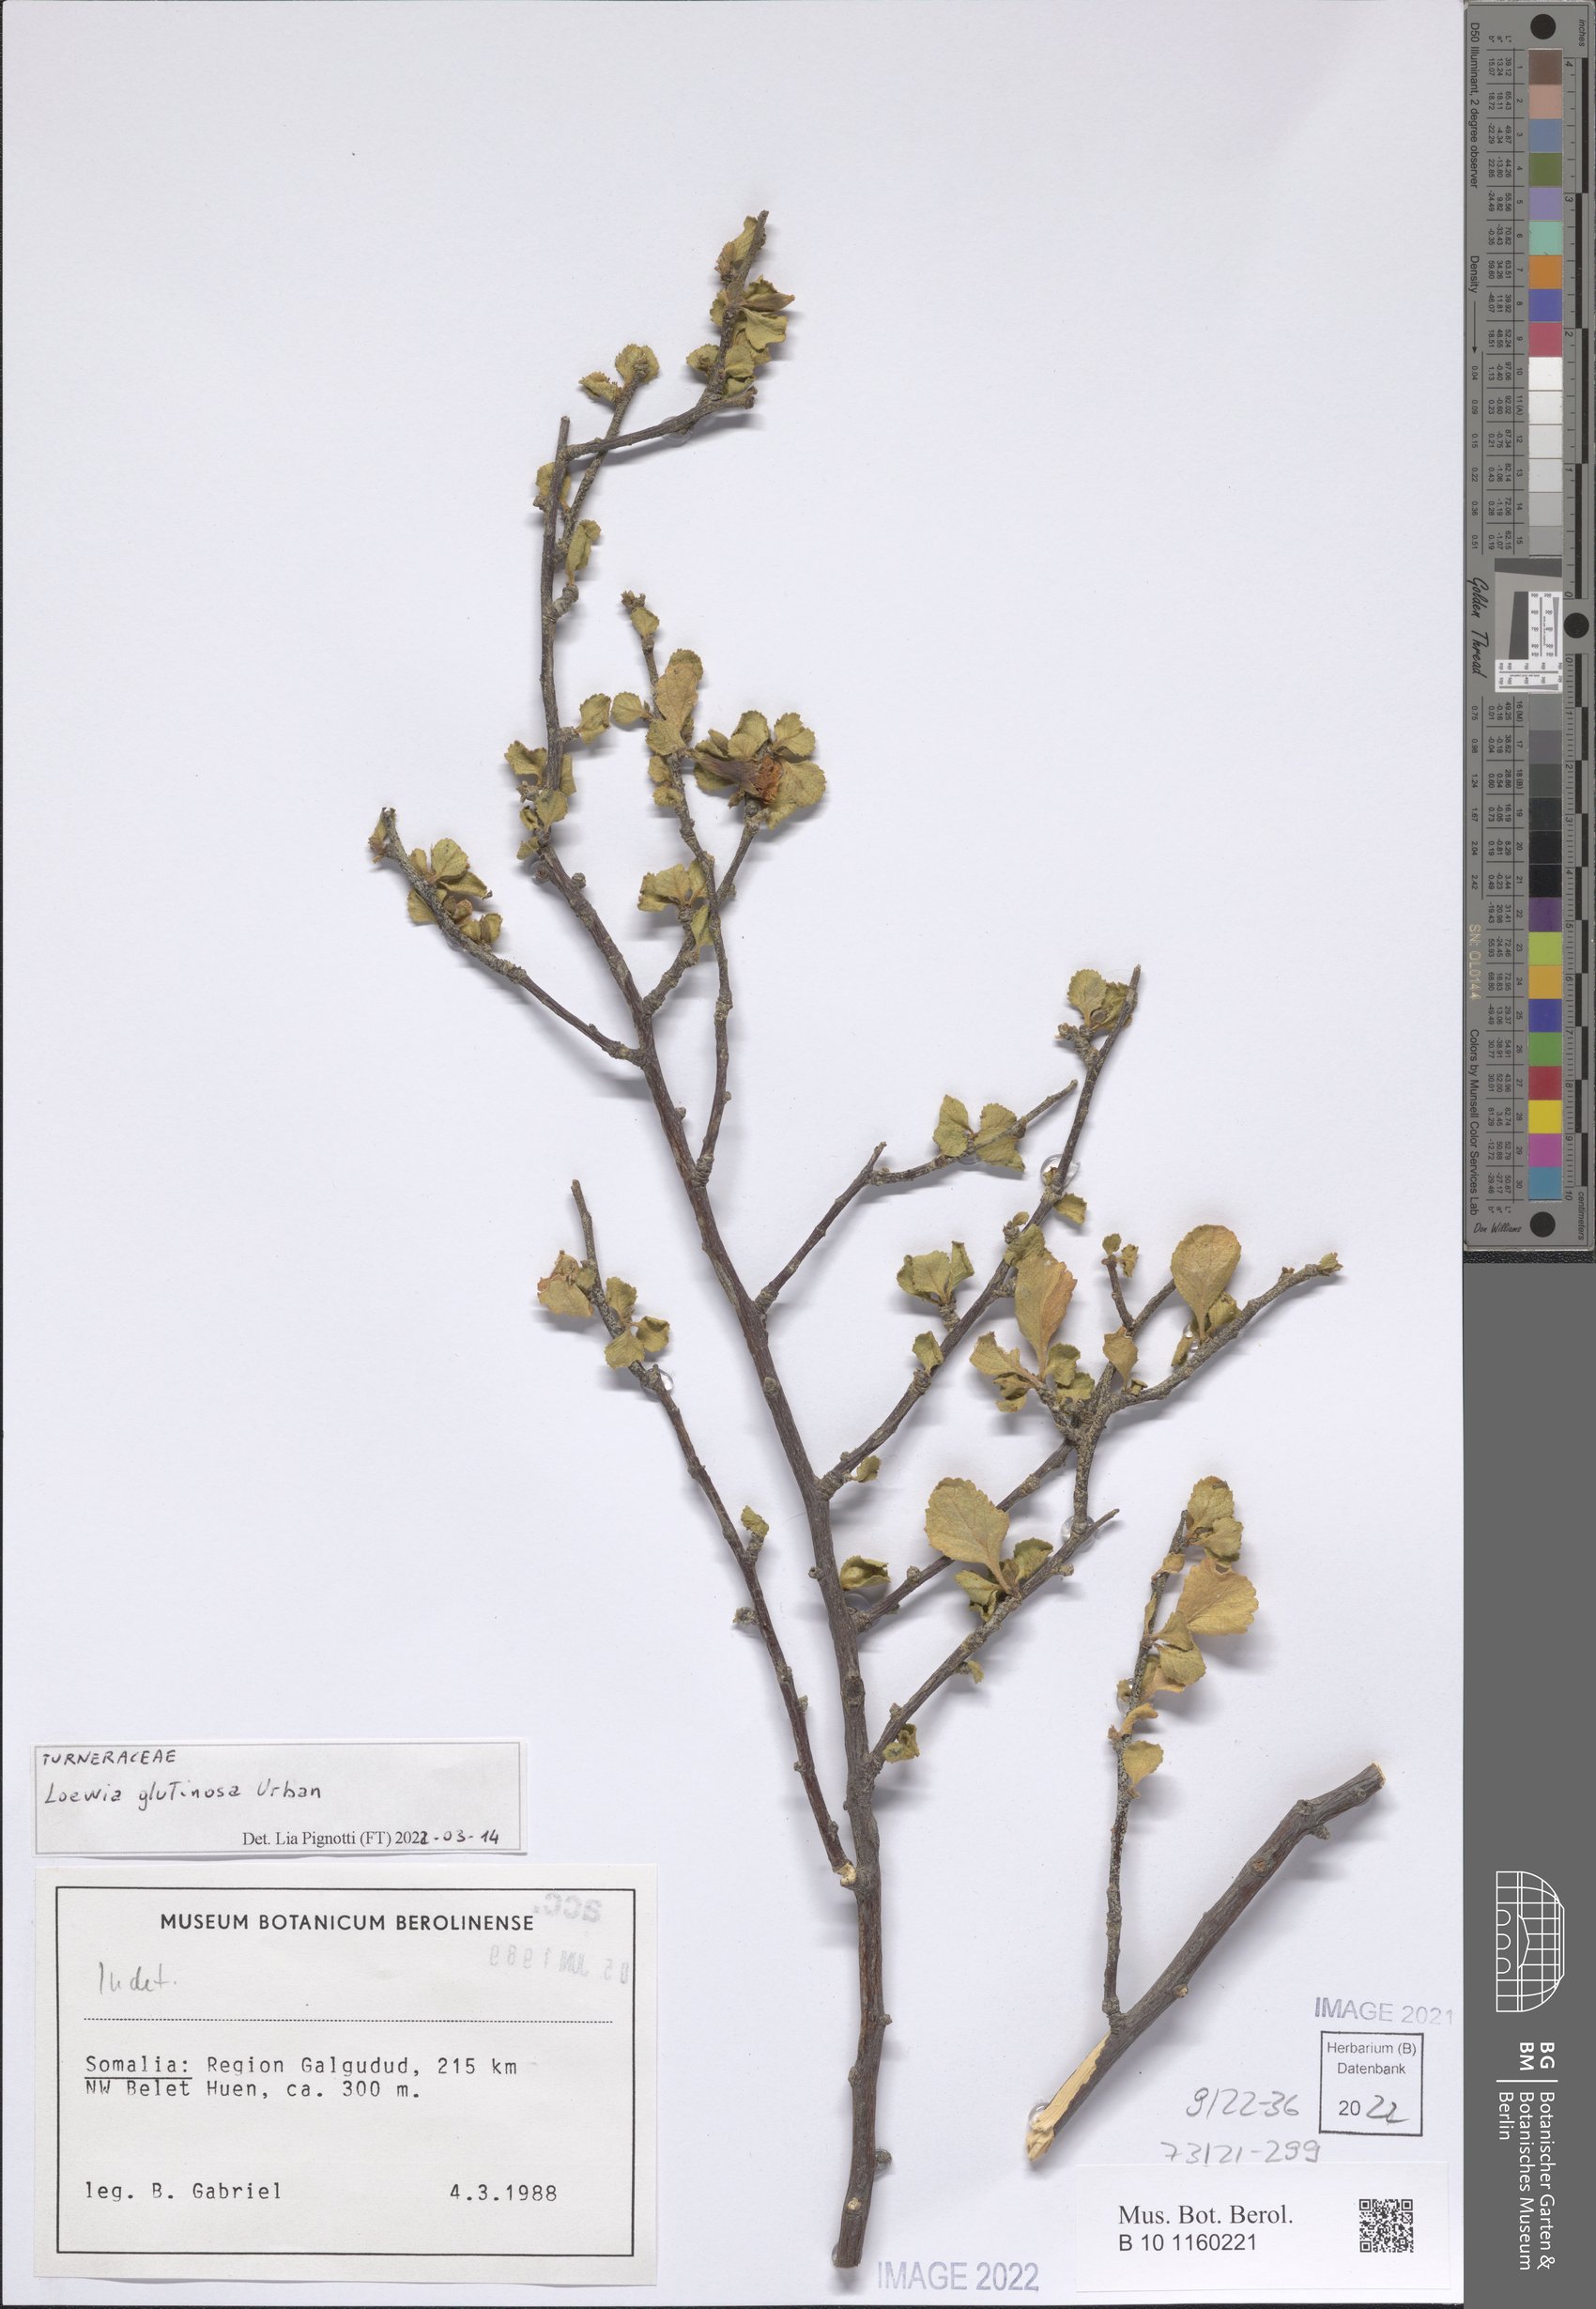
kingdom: Plantae
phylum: Tracheophyta
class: Magnoliopsida
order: Malpighiales
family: Turneraceae
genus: Loewia
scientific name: Loewia glutinosa
